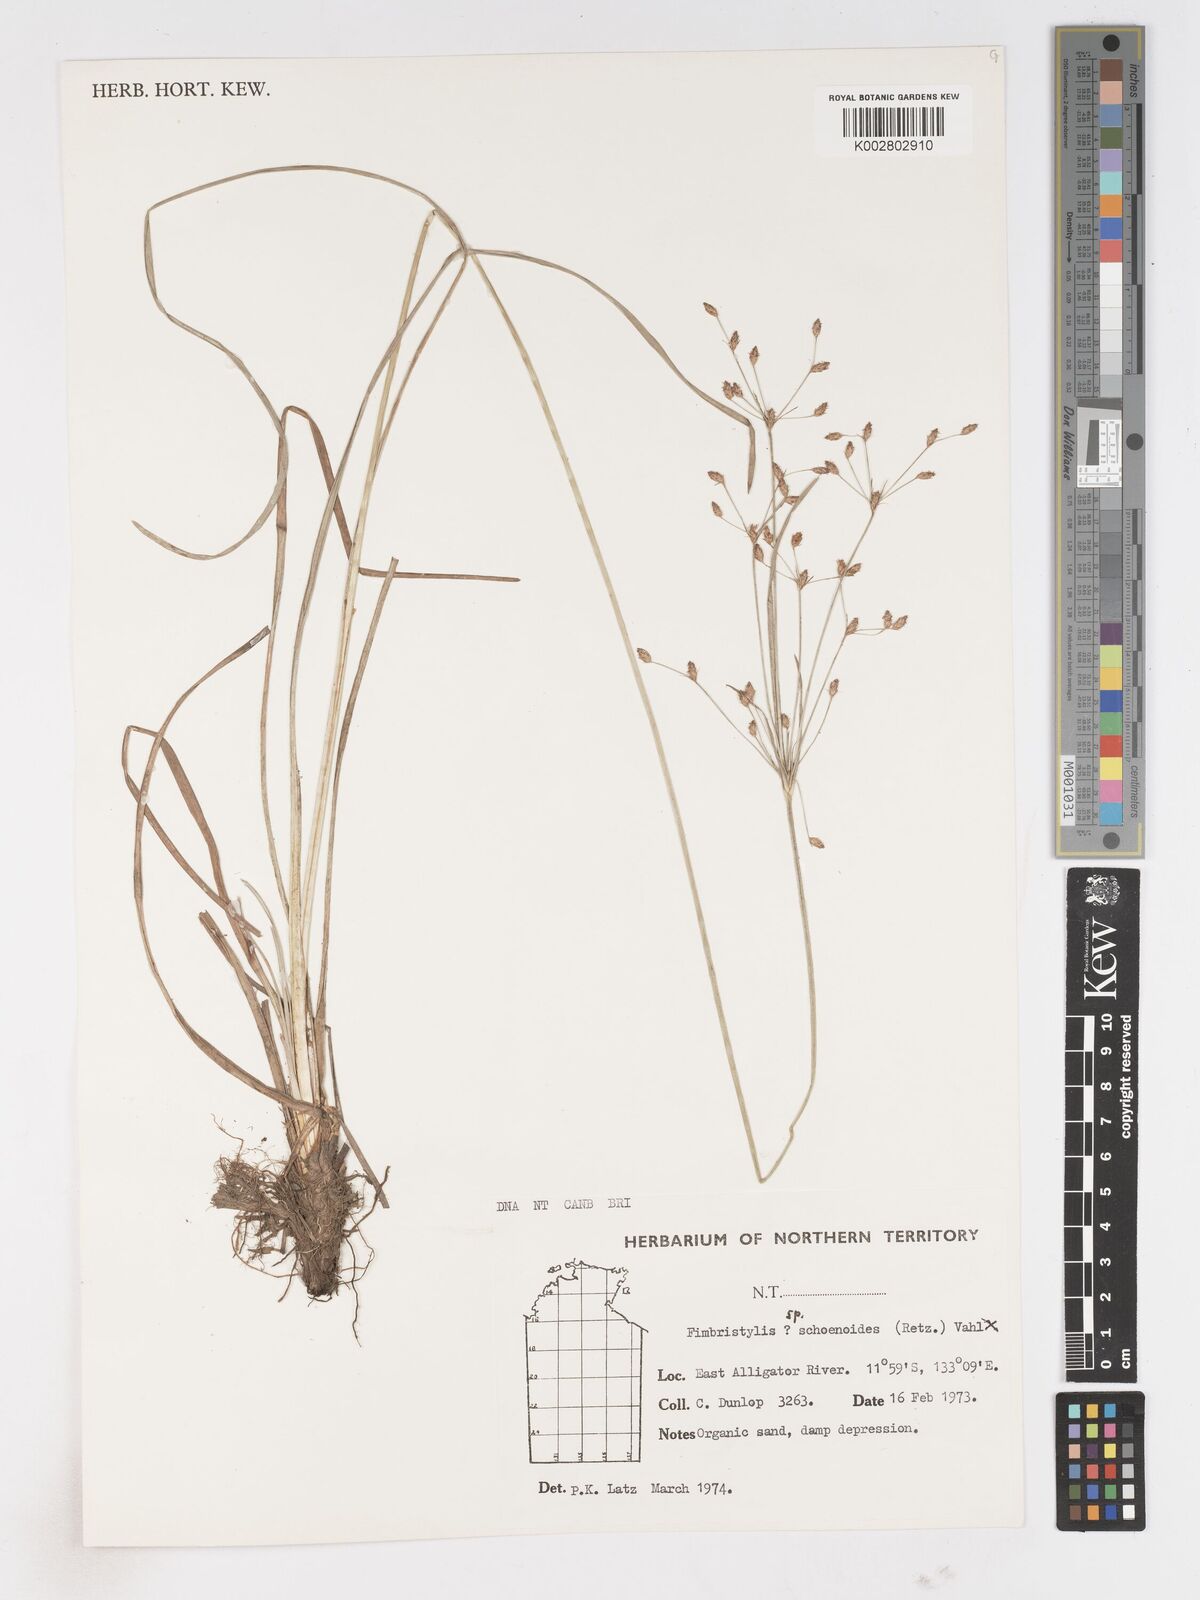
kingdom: Plantae
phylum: Tracheophyta
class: Liliopsida
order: Poales
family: Cyperaceae
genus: Fimbristylis
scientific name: Fimbristylis
